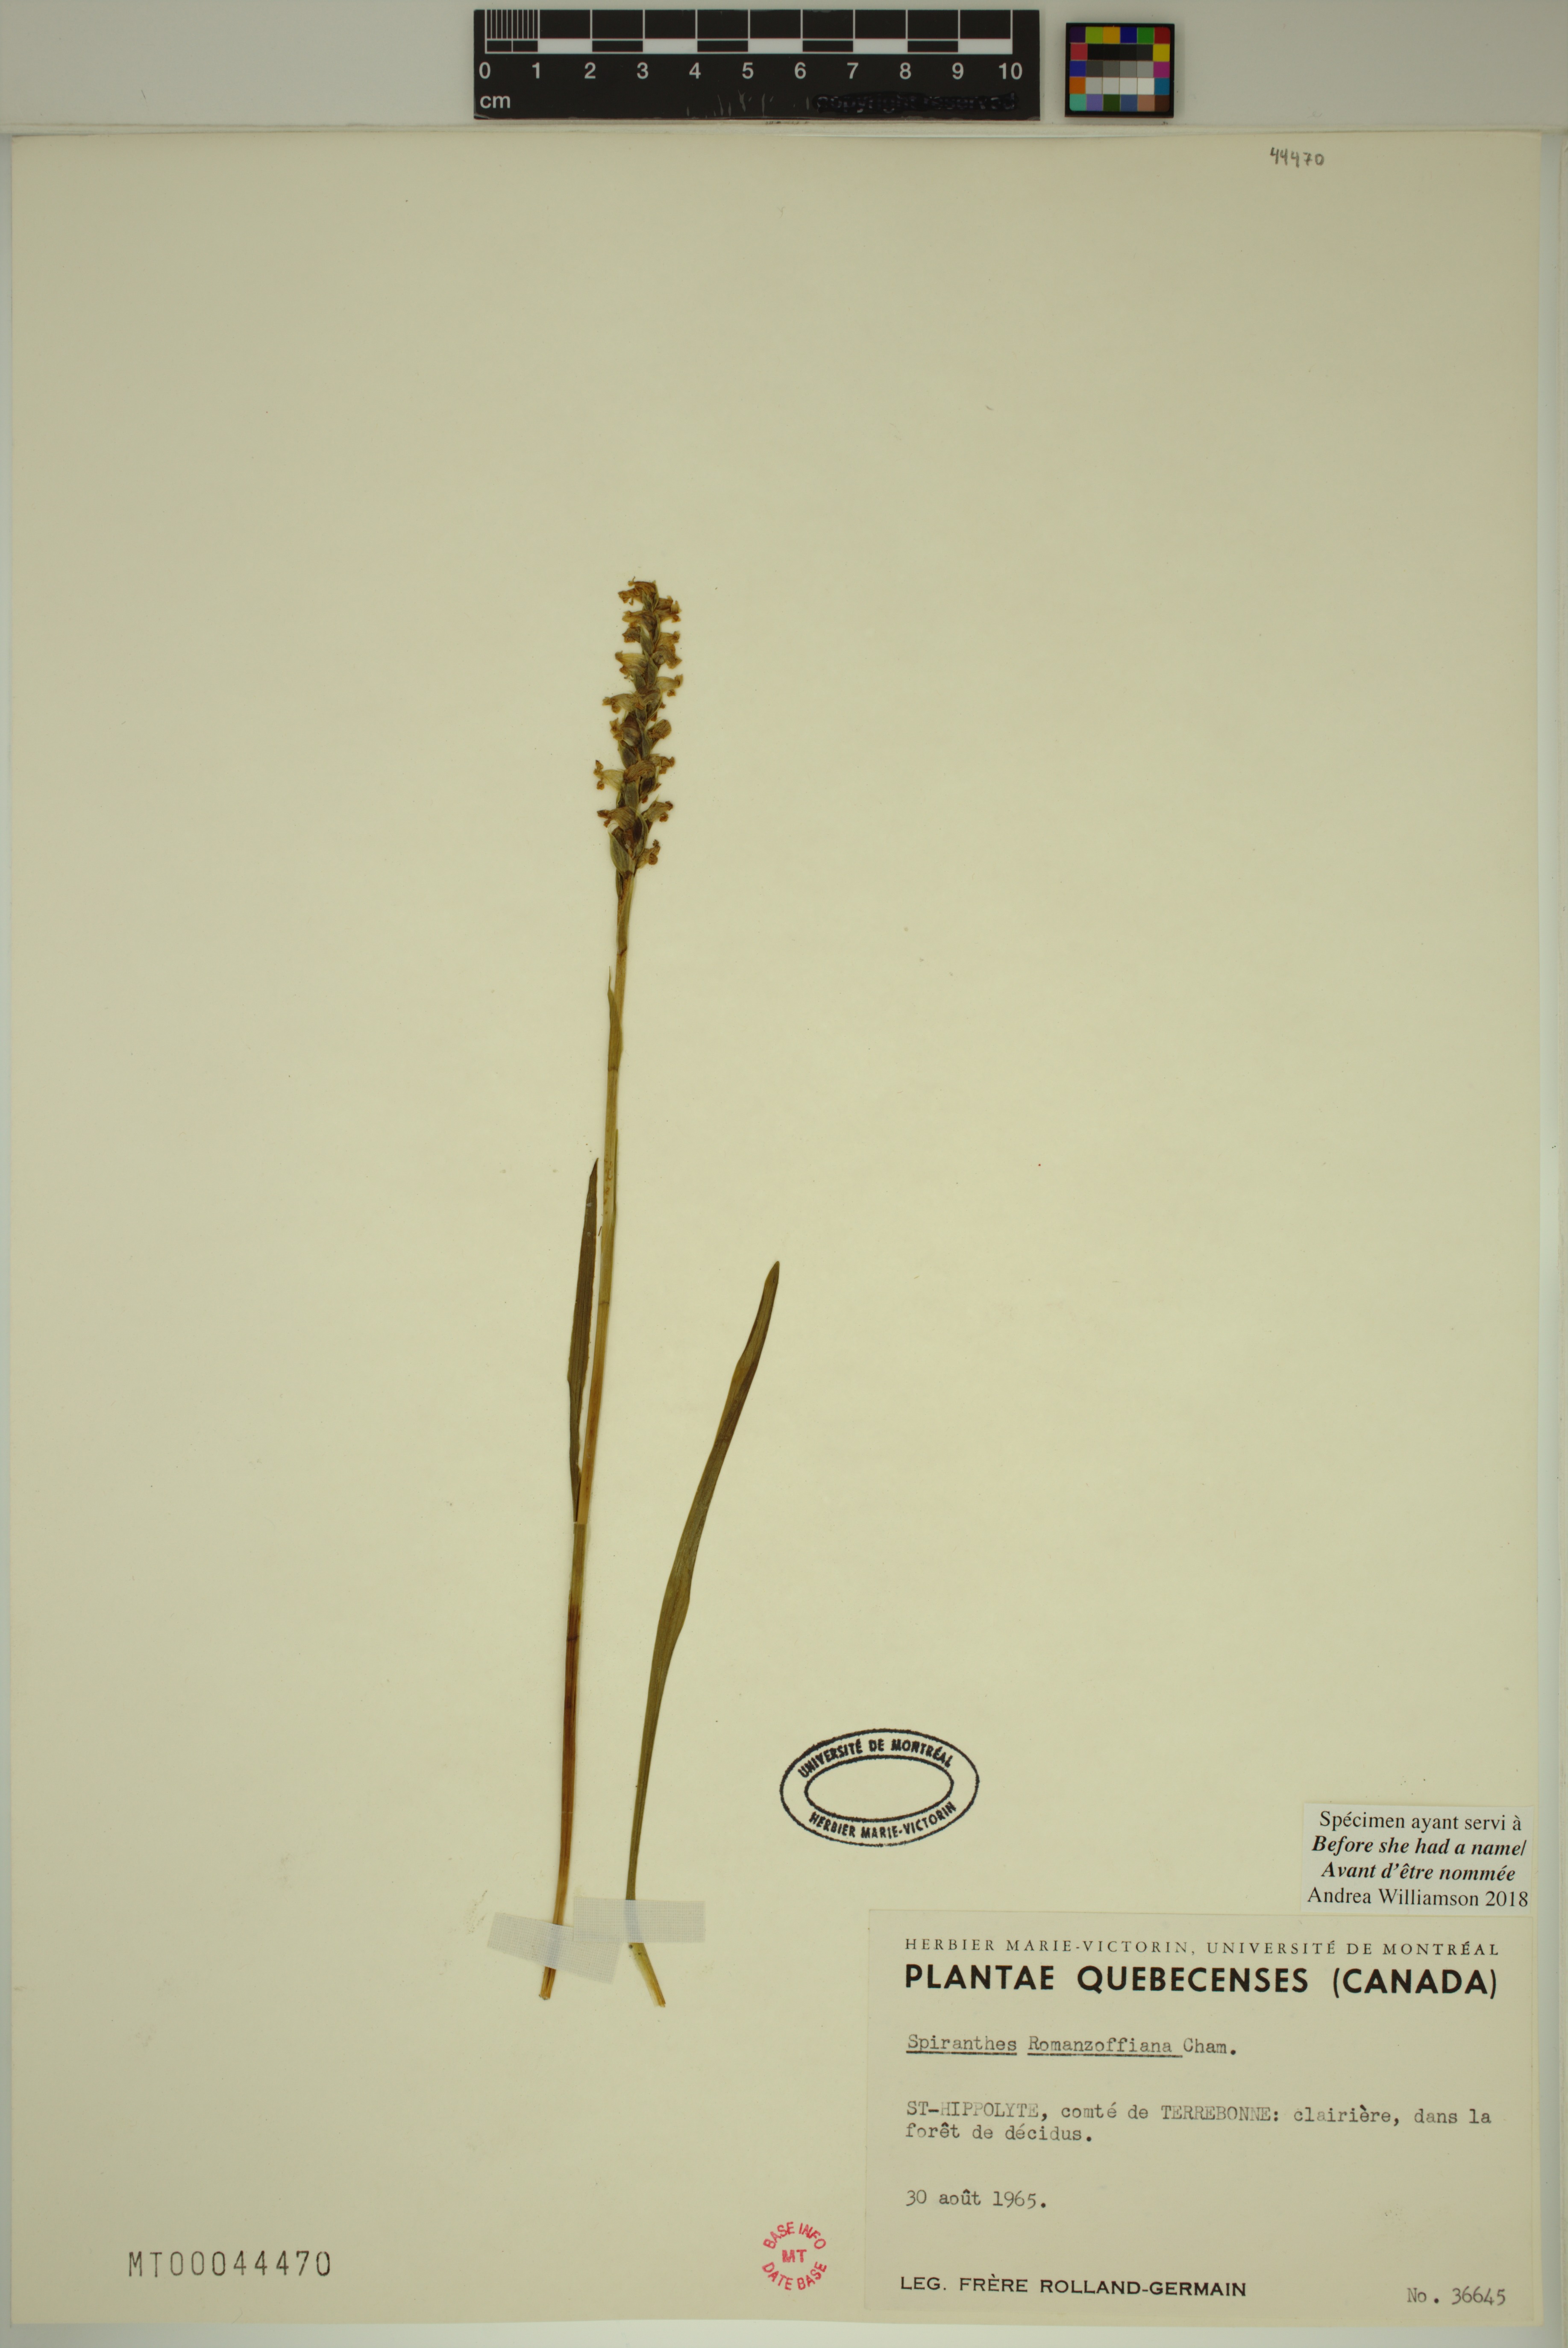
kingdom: Plantae
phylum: Tracheophyta
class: Liliopsida
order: Asparagales
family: Orchidaceae
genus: Spiranthes
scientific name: Spiranthes romanzoffiana
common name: Irish lady's-tresses
